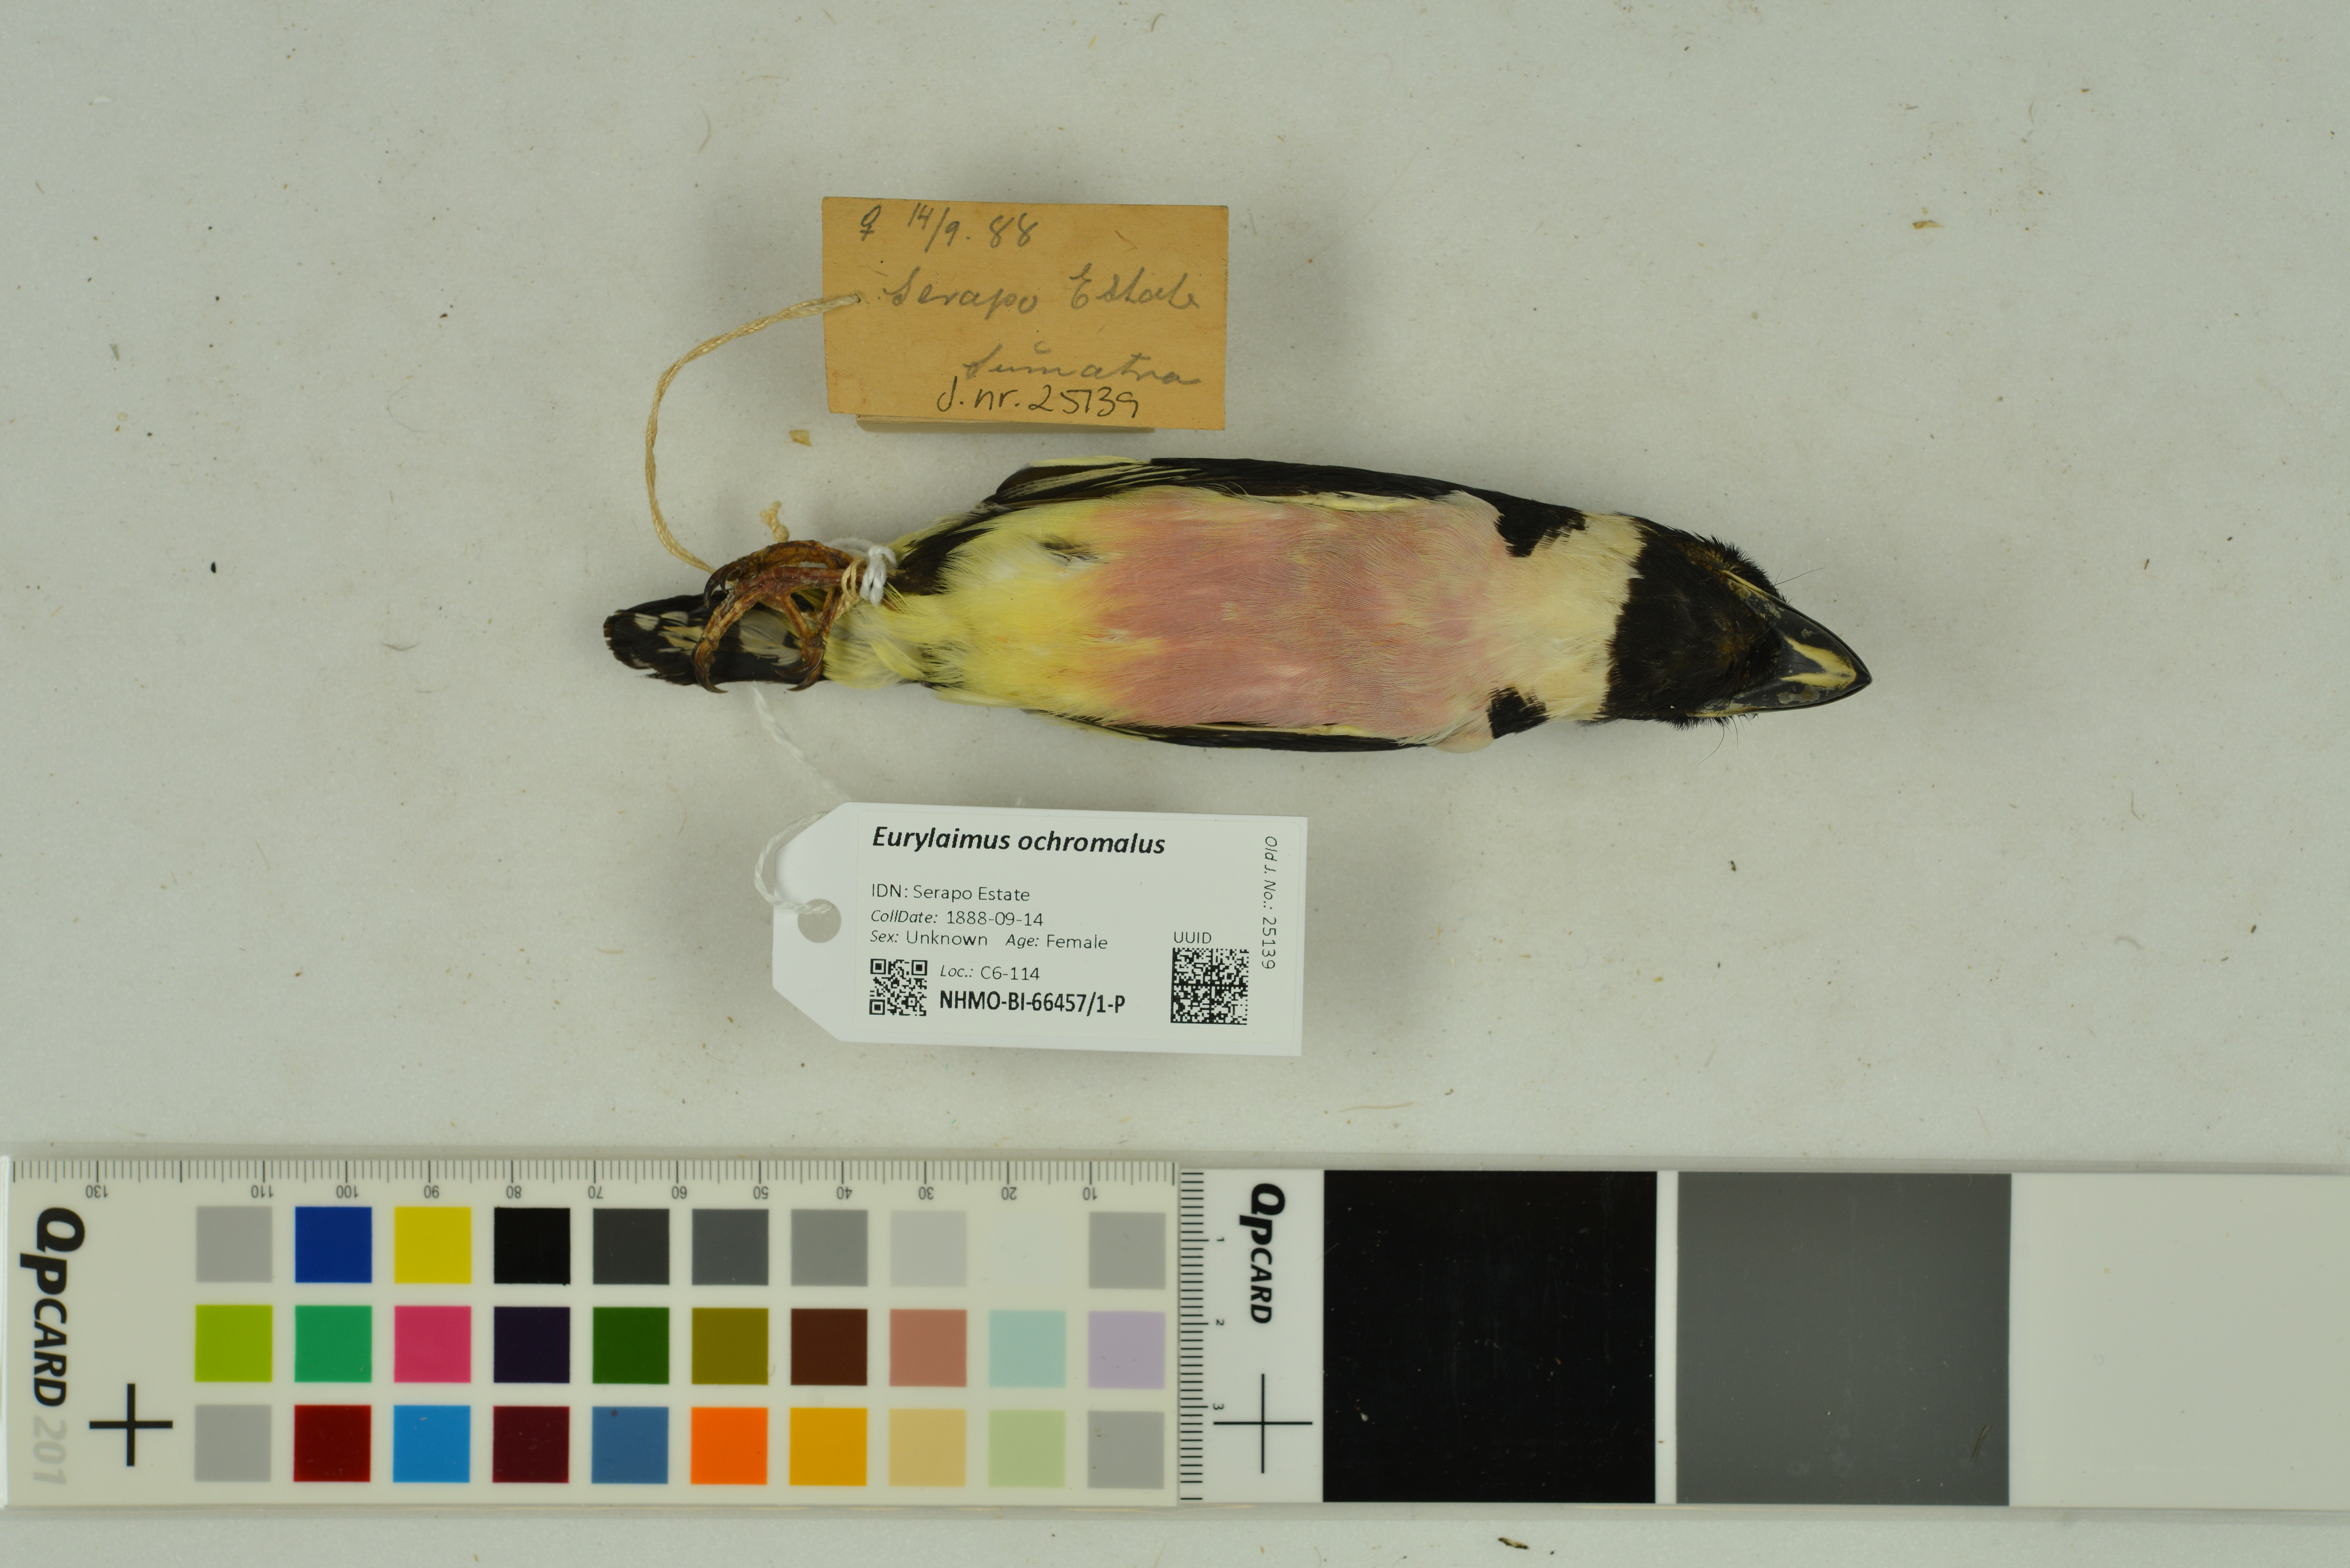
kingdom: Animalia
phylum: Chordata
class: Aves
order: Passeriformes
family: Eurylaimidae
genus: Eurylaimus
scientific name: Eurylaimus ochromalus
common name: Black-and-yellow broadbill
